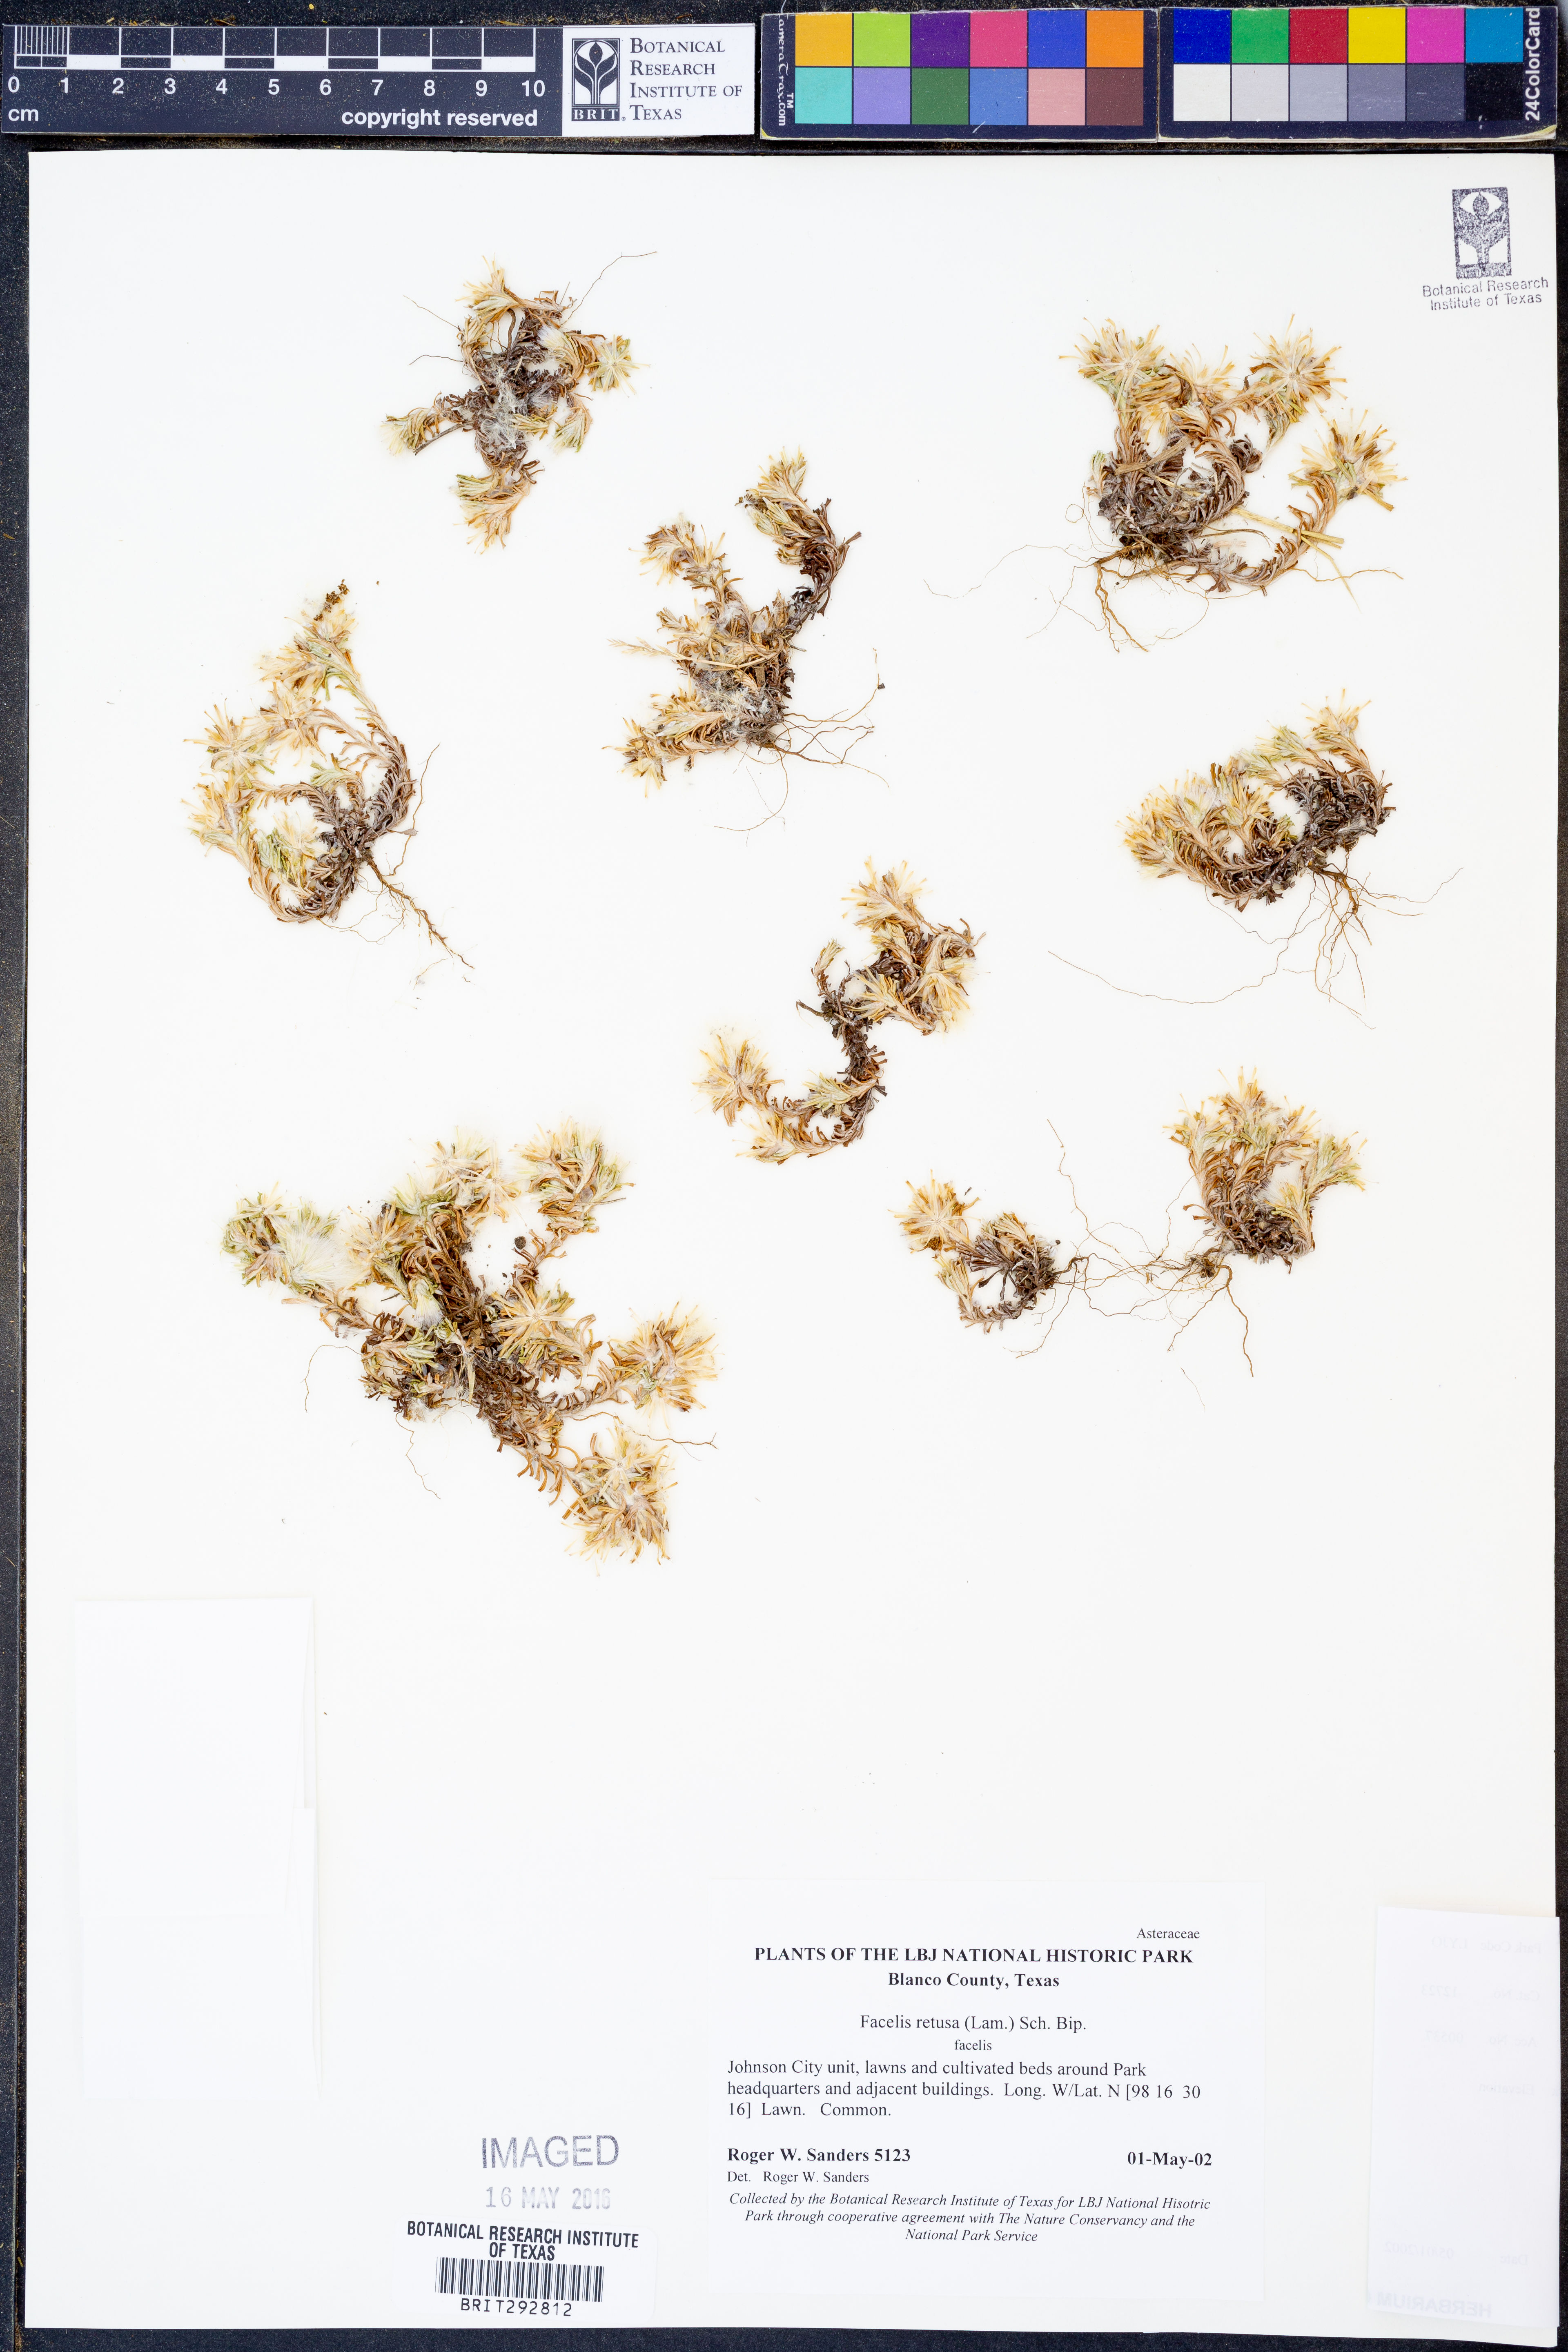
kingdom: Plantae
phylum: Tracheophyta
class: Magnoliopsida
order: Asterales
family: Asteraceae
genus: Facelis
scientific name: Facelis retusa
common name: Annual trampweed
